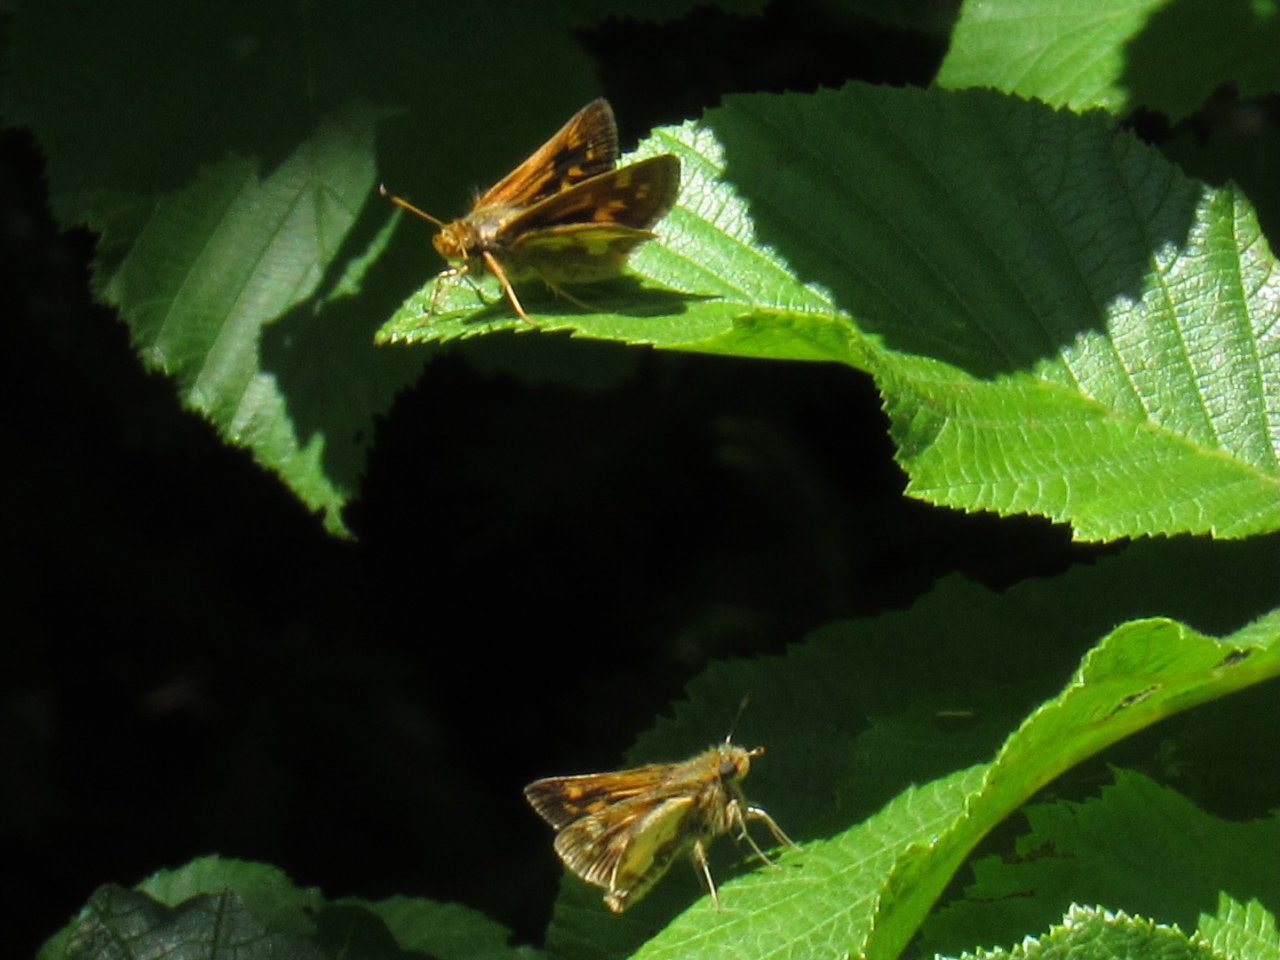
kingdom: Animalia
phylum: Arthropoda
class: Insecta
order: Lepidoptera
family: Hesperiidae
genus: Polites
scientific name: Polites coras
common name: Peck's Skipper
